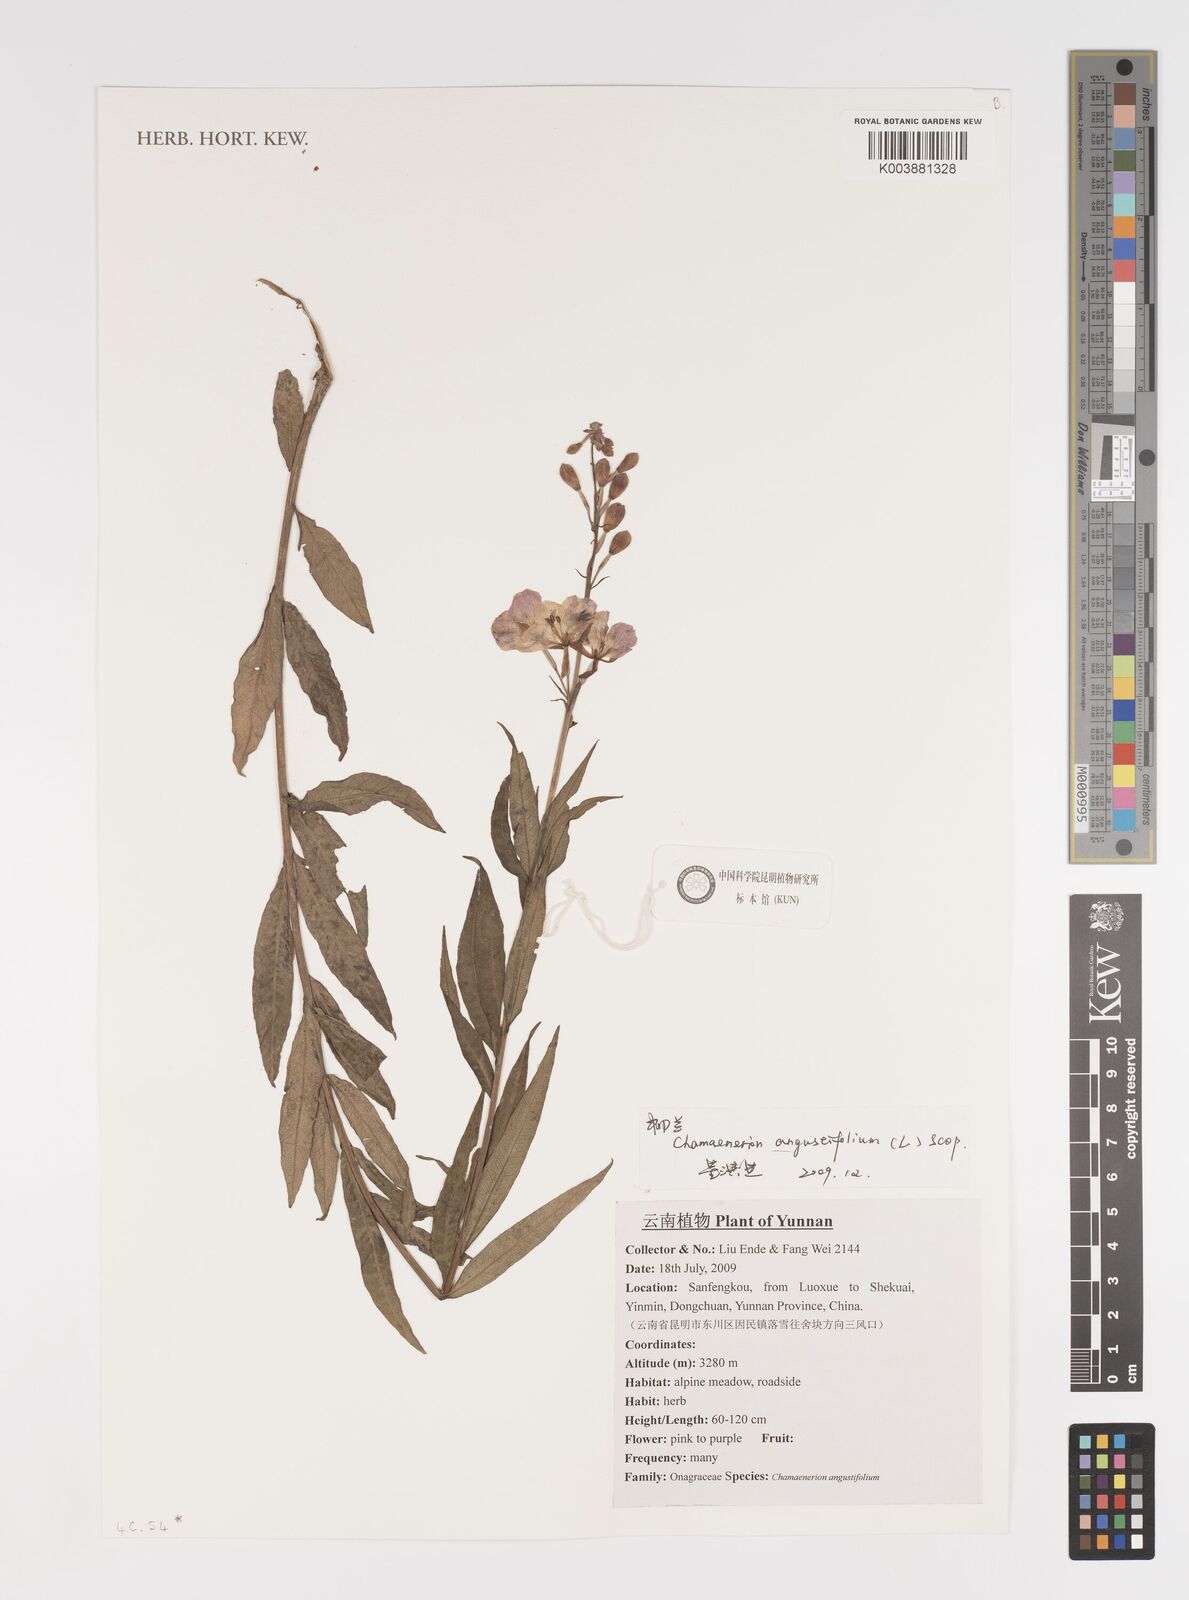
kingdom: Plantae
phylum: Tracheophyta
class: Magnoliopsida
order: Myrtales
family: Onagraceae
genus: Chamaenerion
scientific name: Chamaenerion angustifolium
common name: Fireweed
